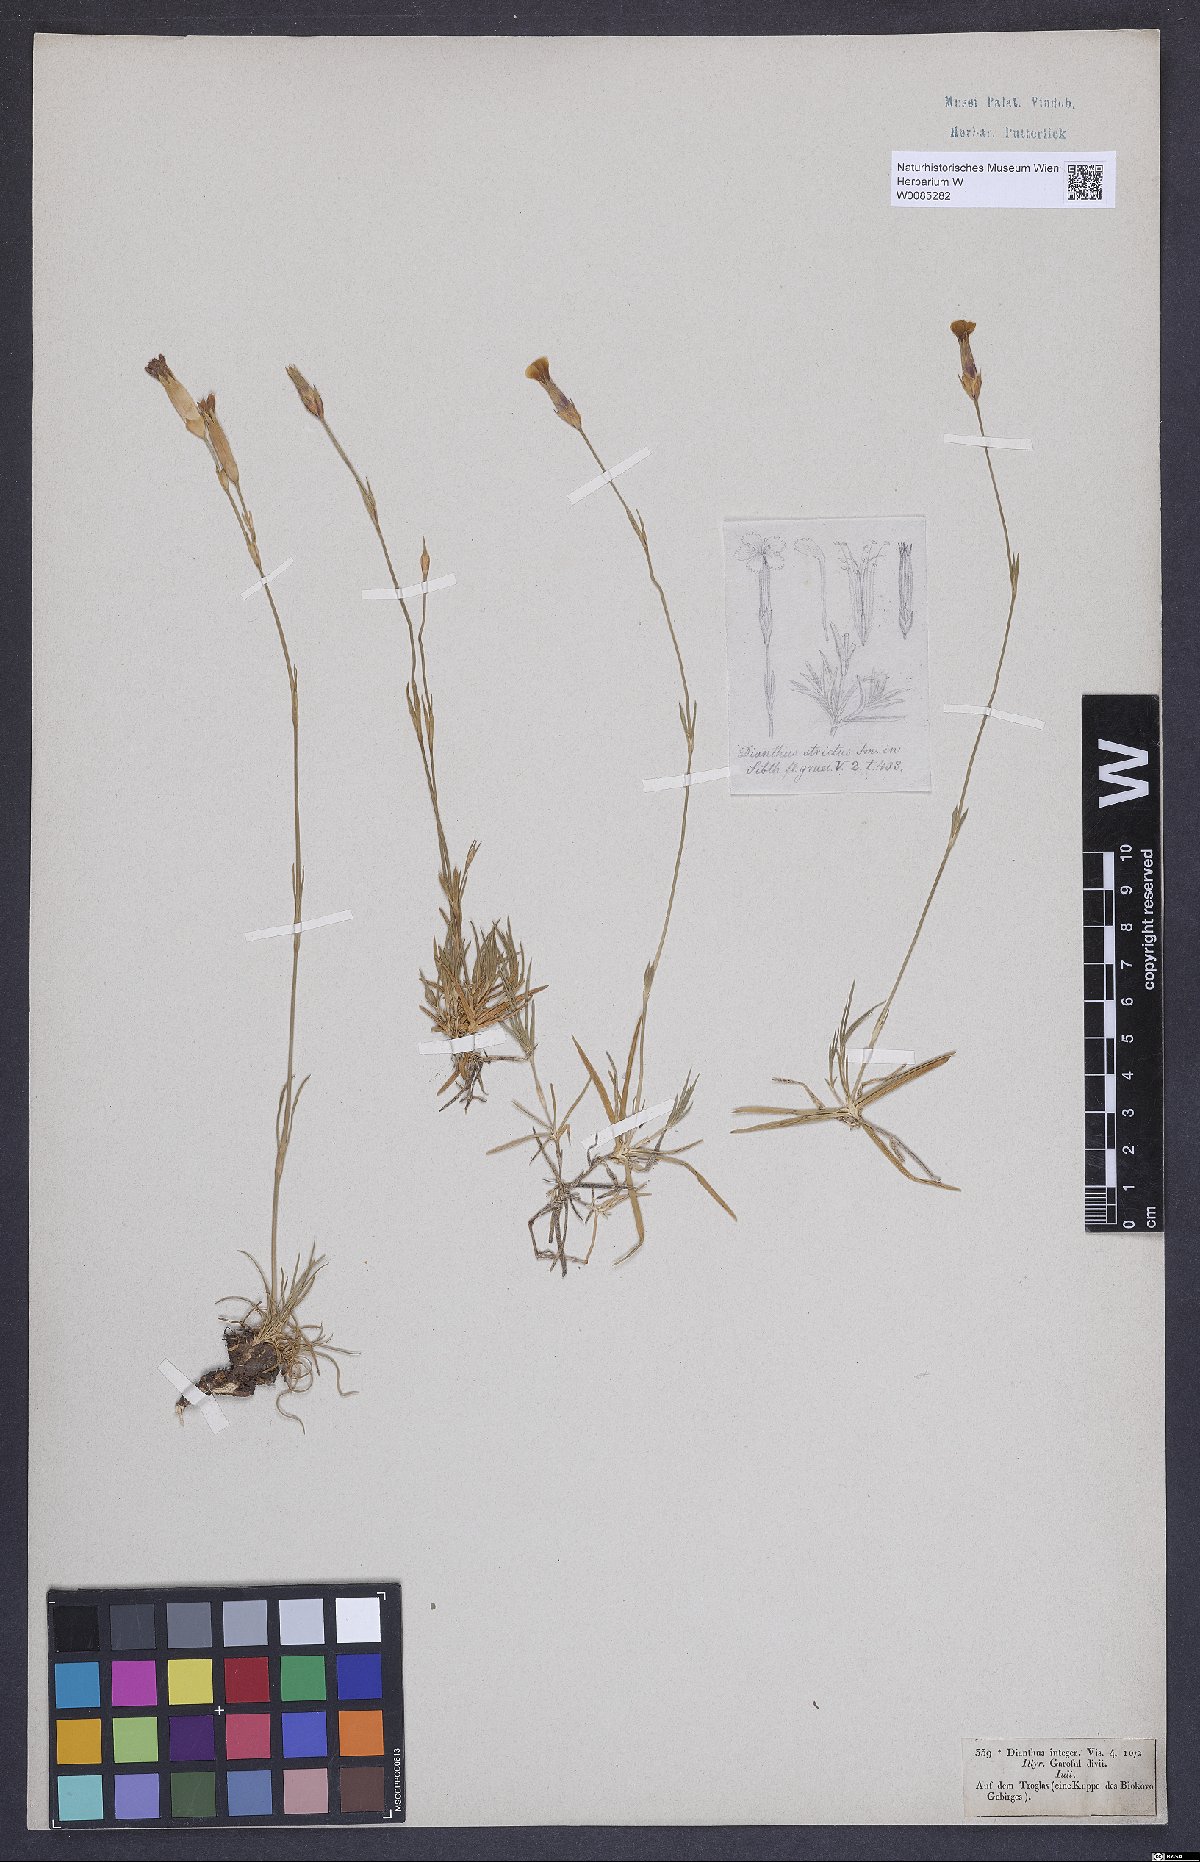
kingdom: Plantae
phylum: Tracheophyta
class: Magnoliopsida
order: Caryophyllales
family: Caryophyllaceae
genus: Dianthus
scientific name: Dianthus petraeus
